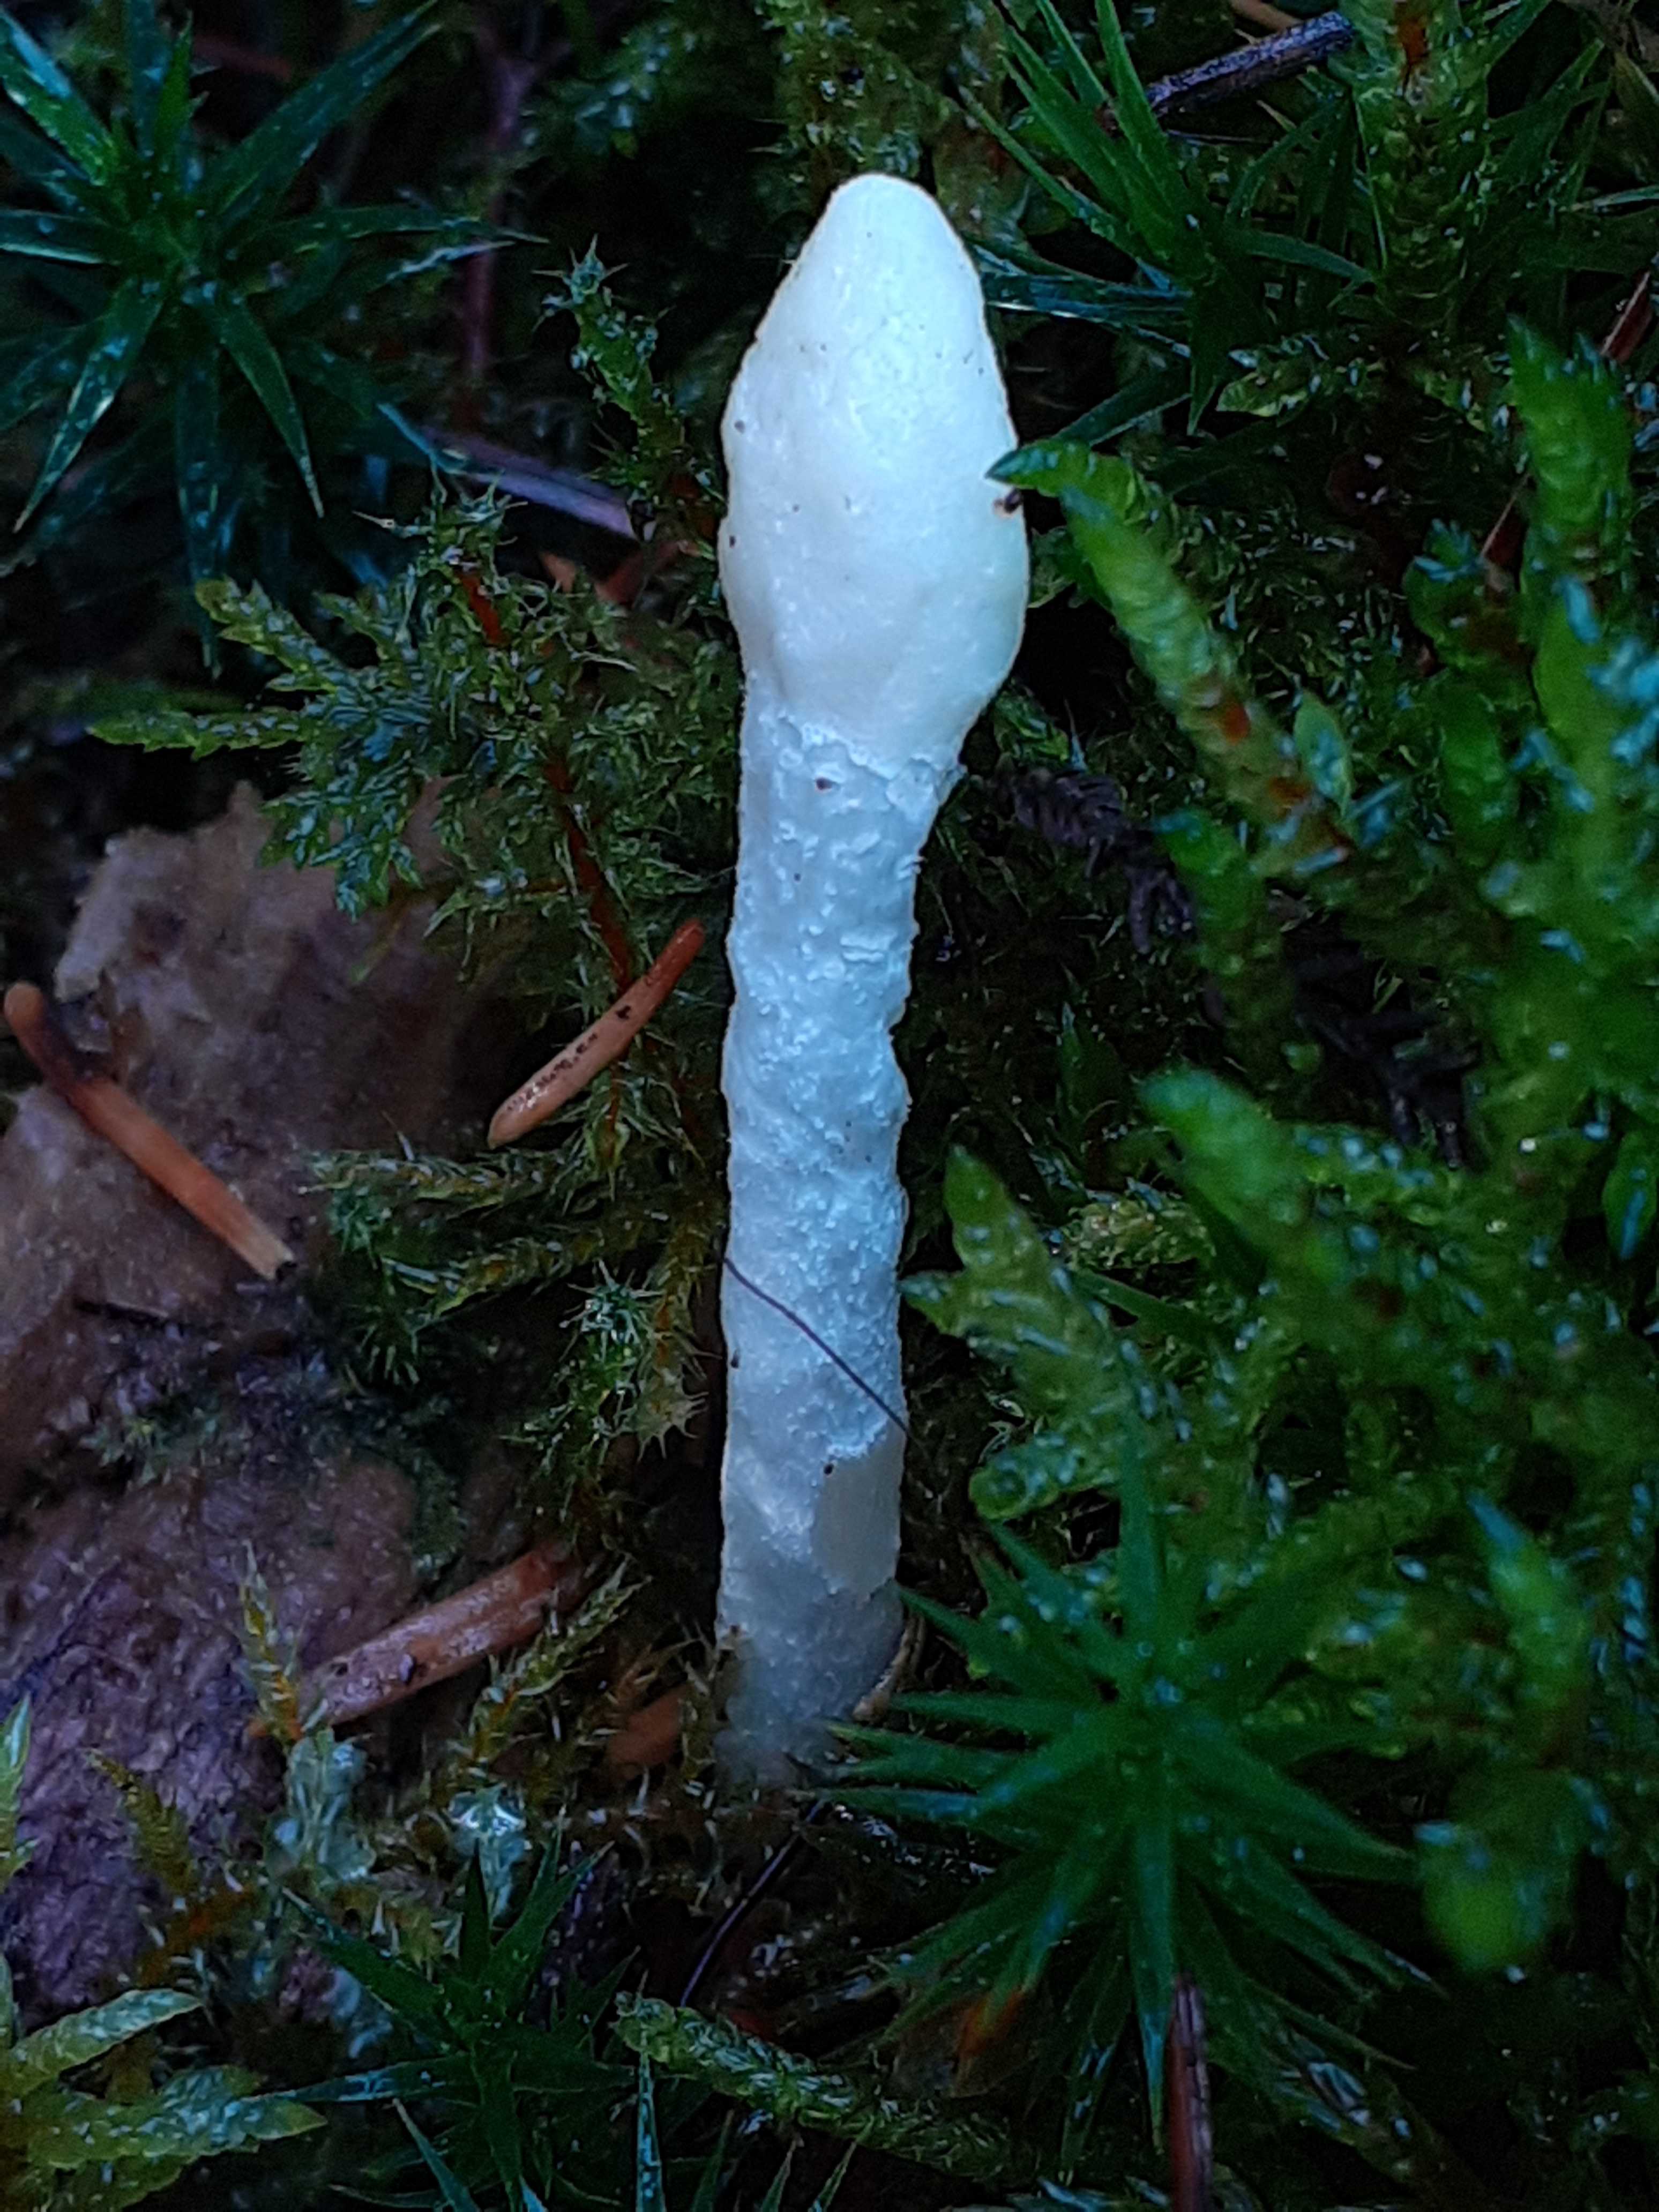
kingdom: Fungi
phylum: Ascomycota
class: Sordariomycetes
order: Hypocreales
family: Hypocreaceae
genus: Trichoderma
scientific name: Trichoderma leucopus
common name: lysstokket kødkerne
